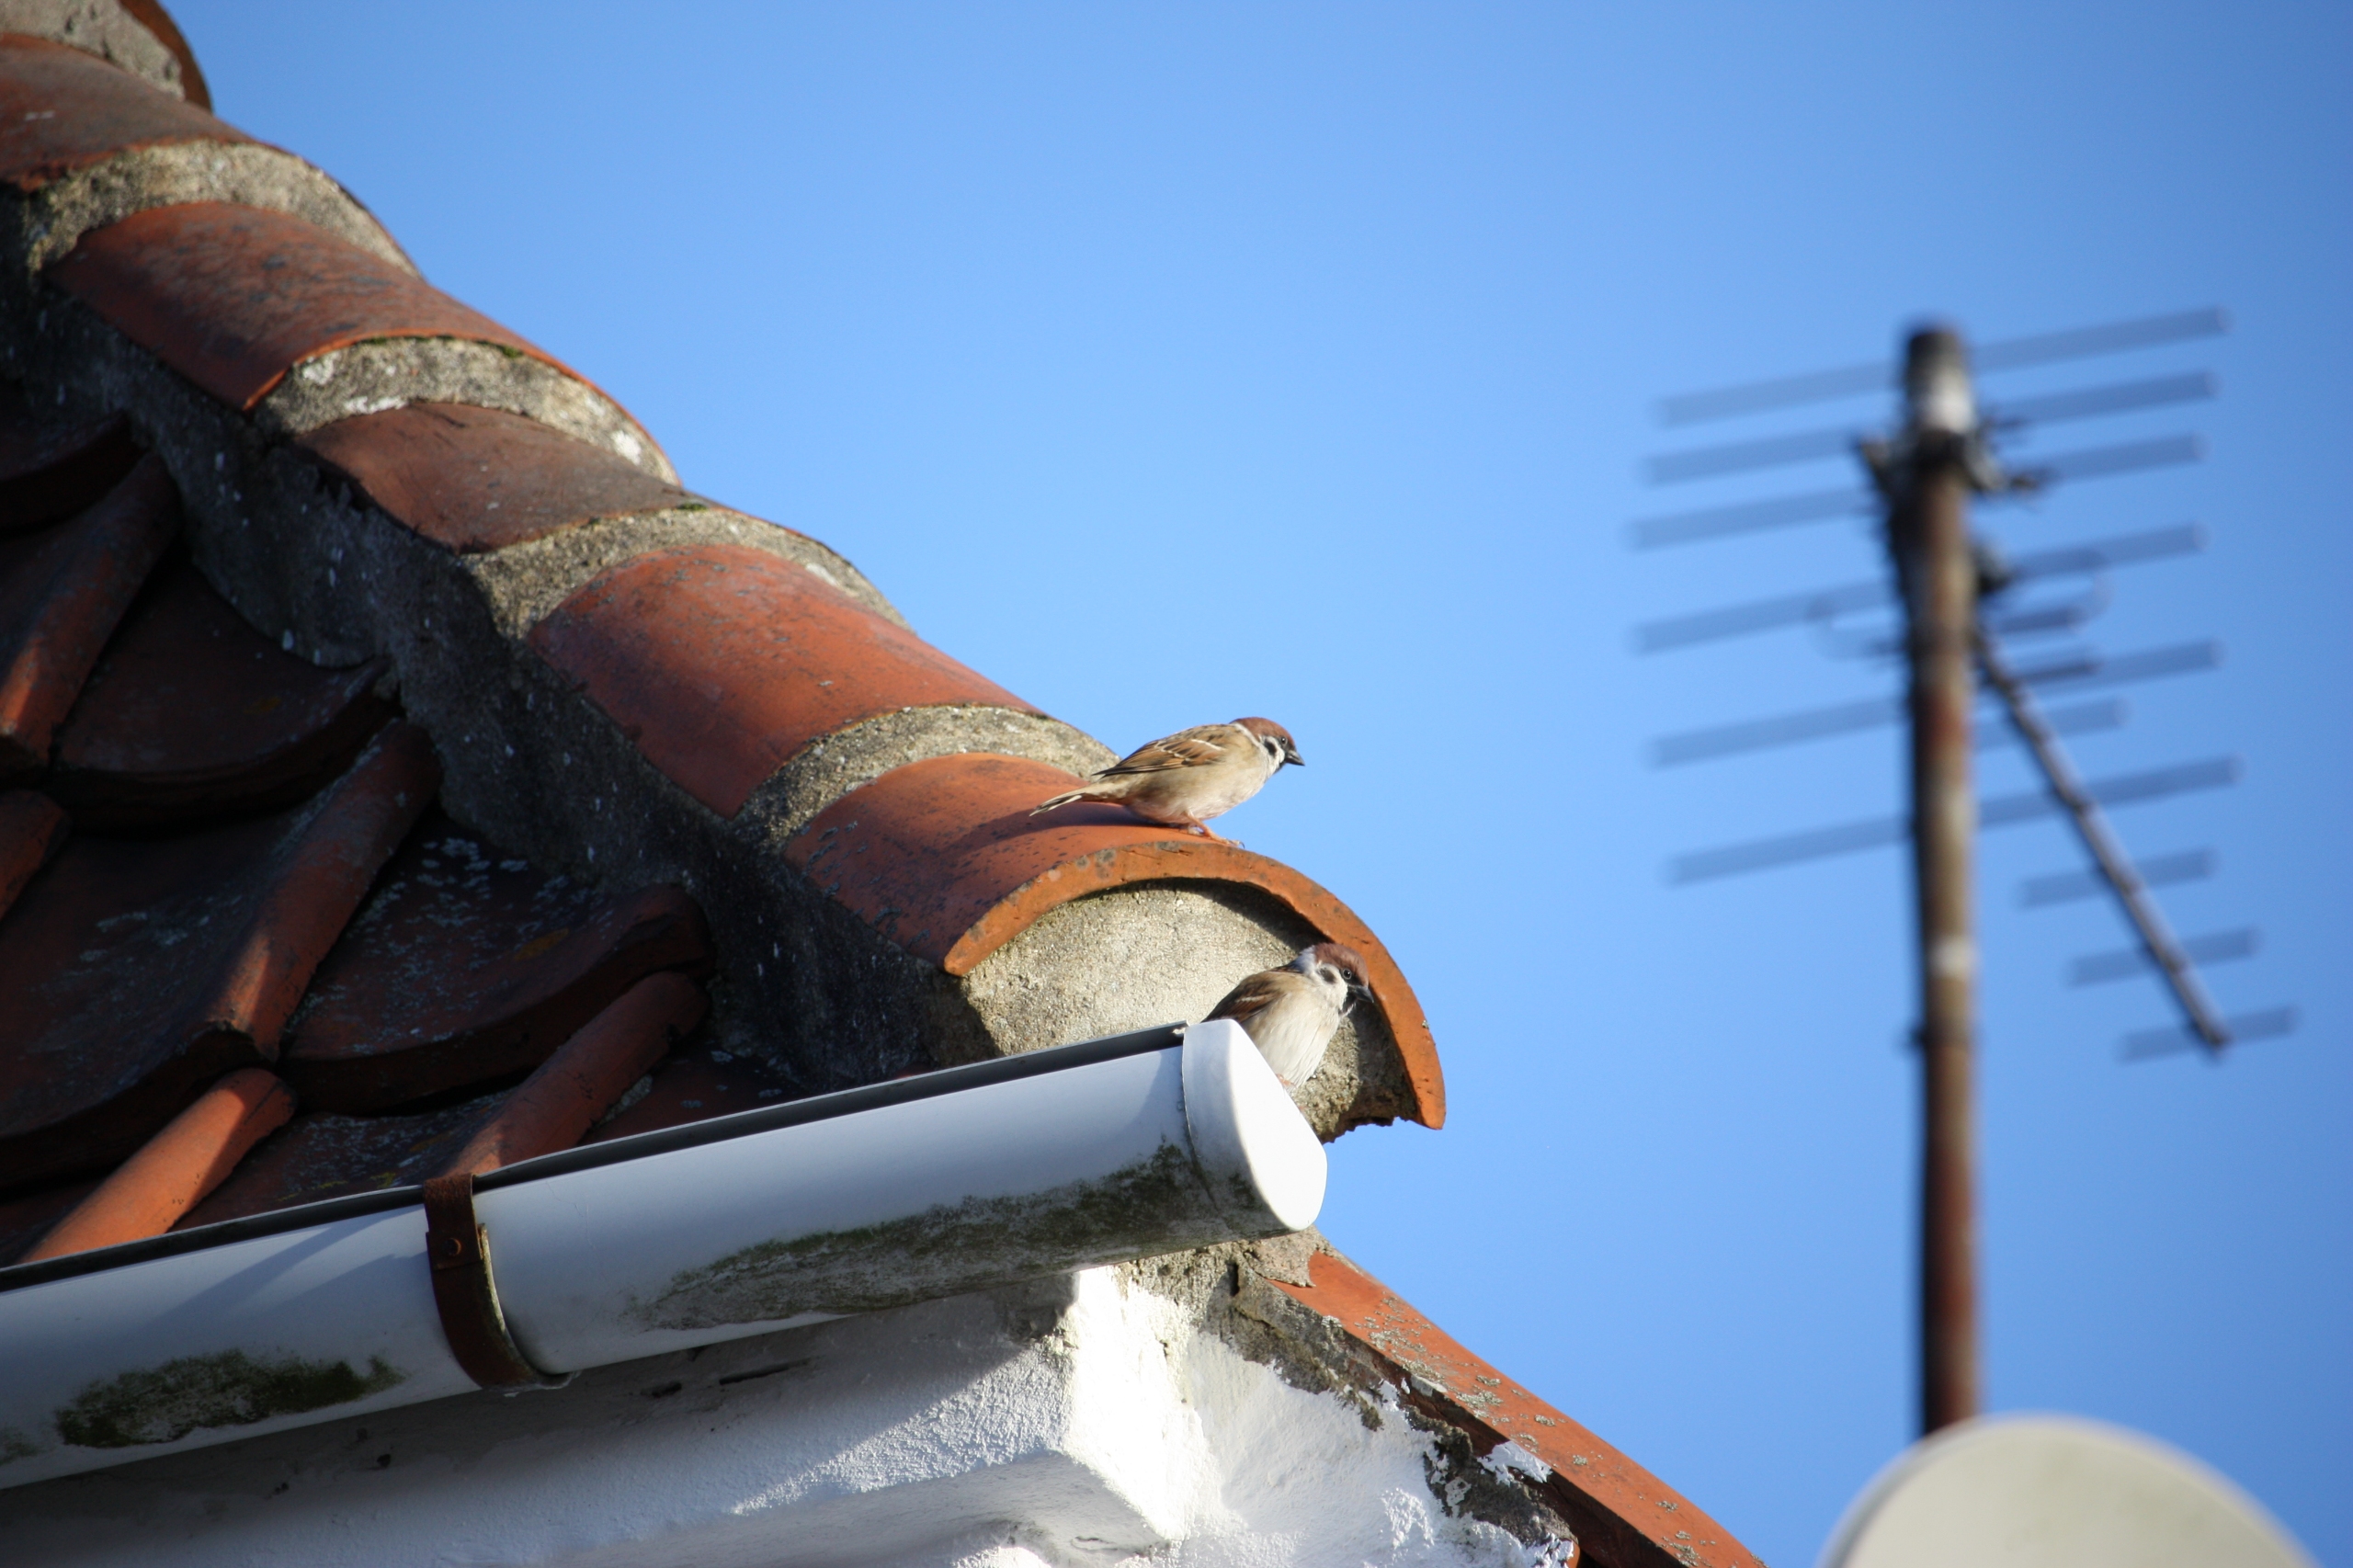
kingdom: Animalia
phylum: Chordata
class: Aves
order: Passeriformes
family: Passeridae
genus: Passer
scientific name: Passer montanus
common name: Skovspurv
